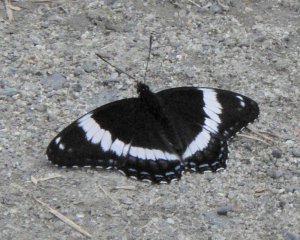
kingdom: Animalia
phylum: Arthropoda
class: Insecta
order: Lepidoptera
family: Nymphalidae
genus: Limenitis
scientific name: Limenitis arthemis
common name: Red-spotted Admiral
